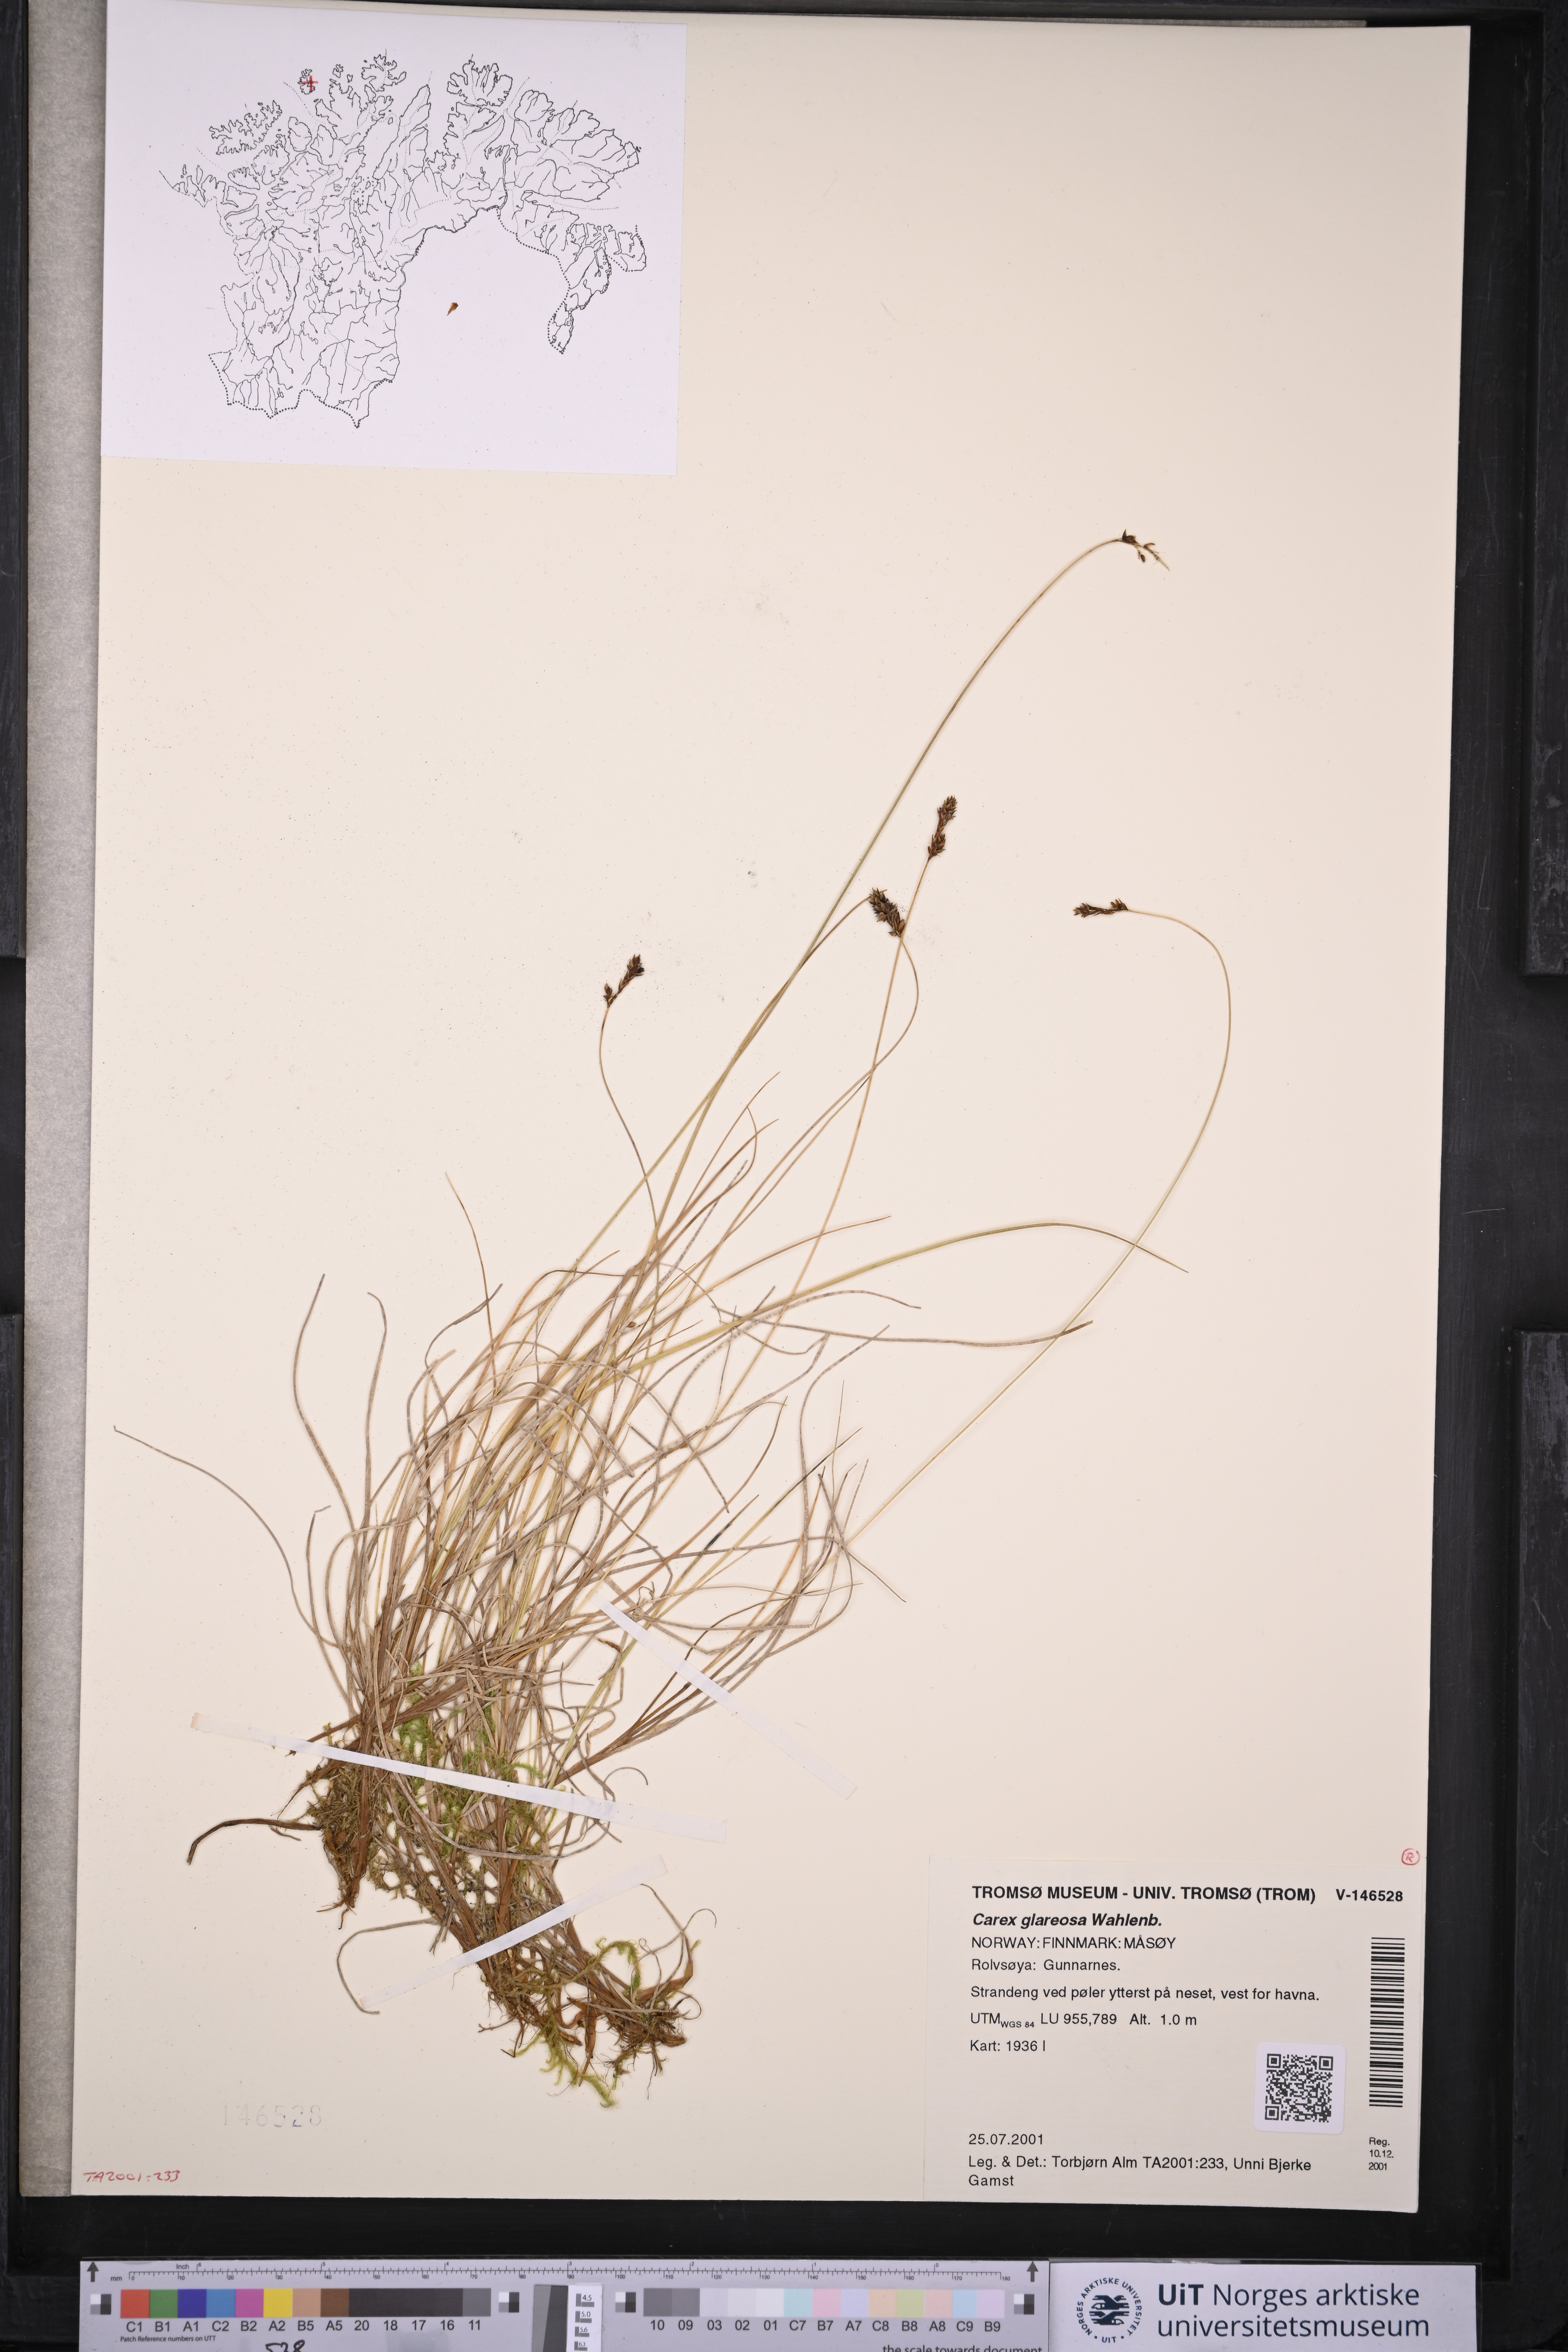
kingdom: Plantae
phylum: Tracheophyta
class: Liliopsida
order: Poales
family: Cyperaceae
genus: Carex
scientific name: Carex glareosa
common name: Clustered sedge
